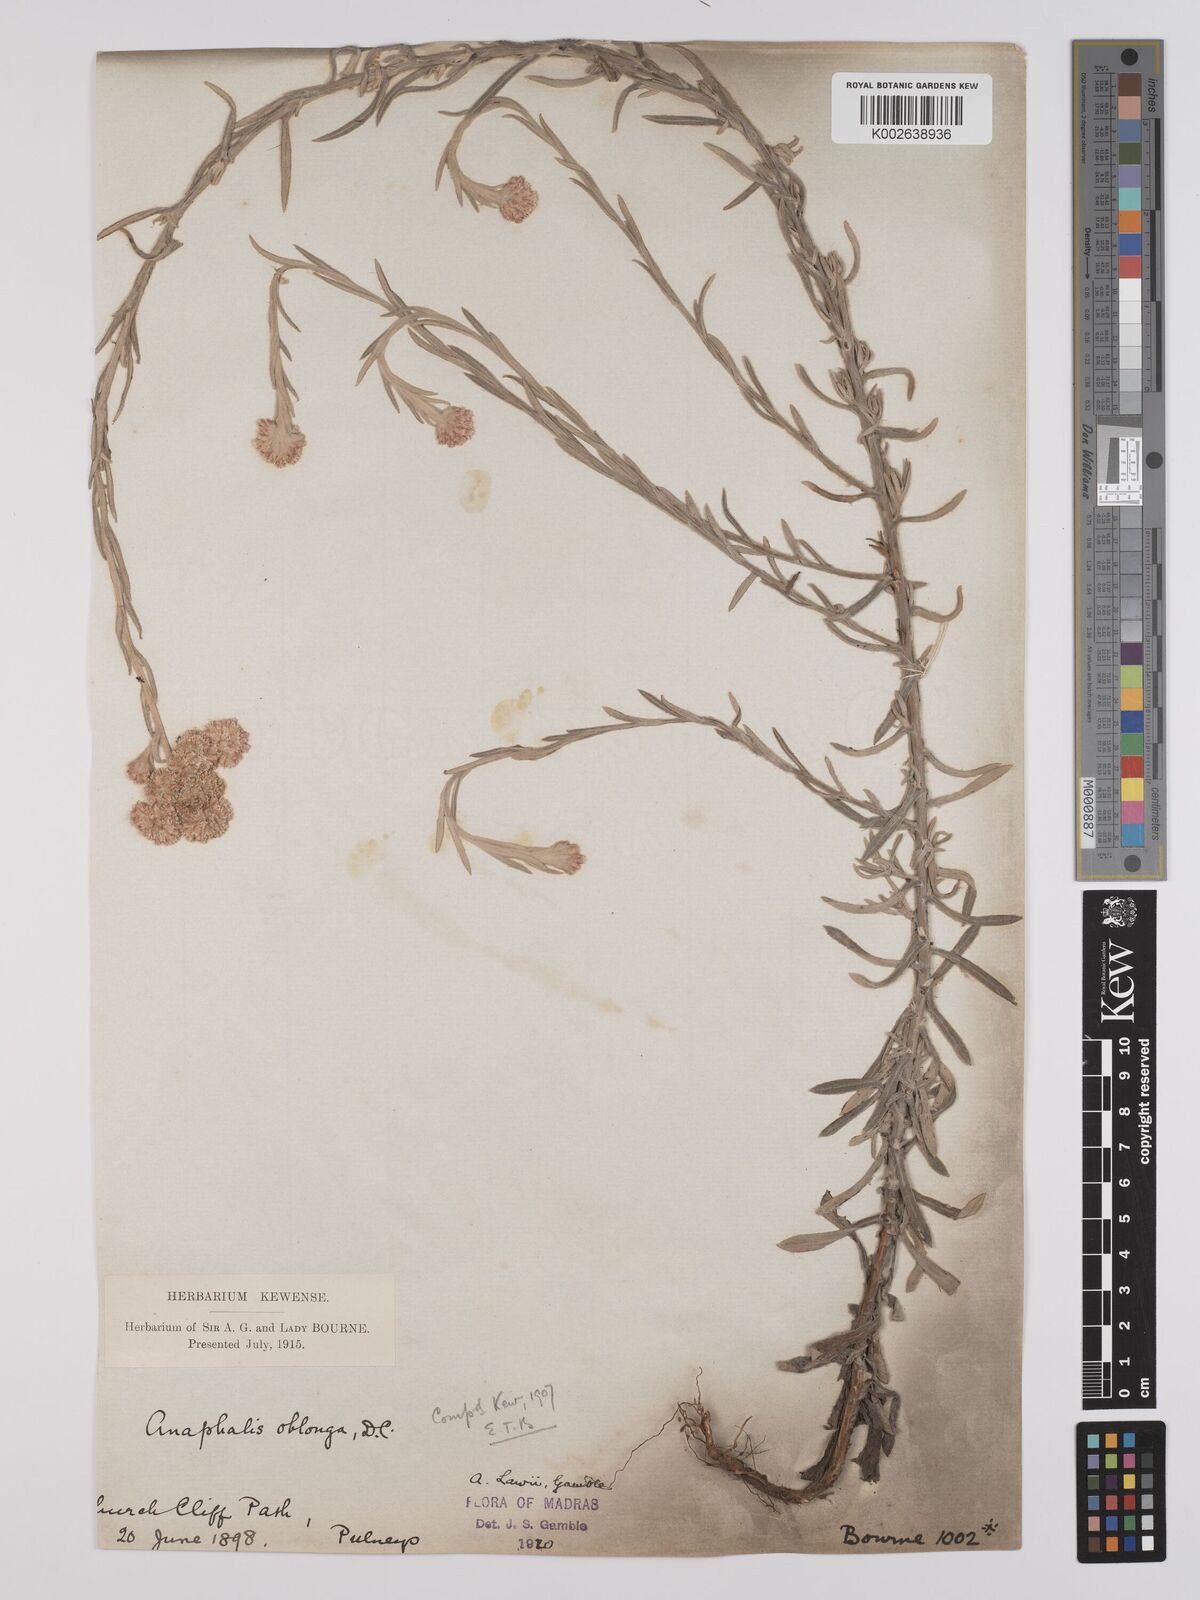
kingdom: Plantae
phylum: Tracheophyta
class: Magnoliopsida
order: Asterales
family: Asteraceae
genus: Anaphalis
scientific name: Anaphalis lawii
